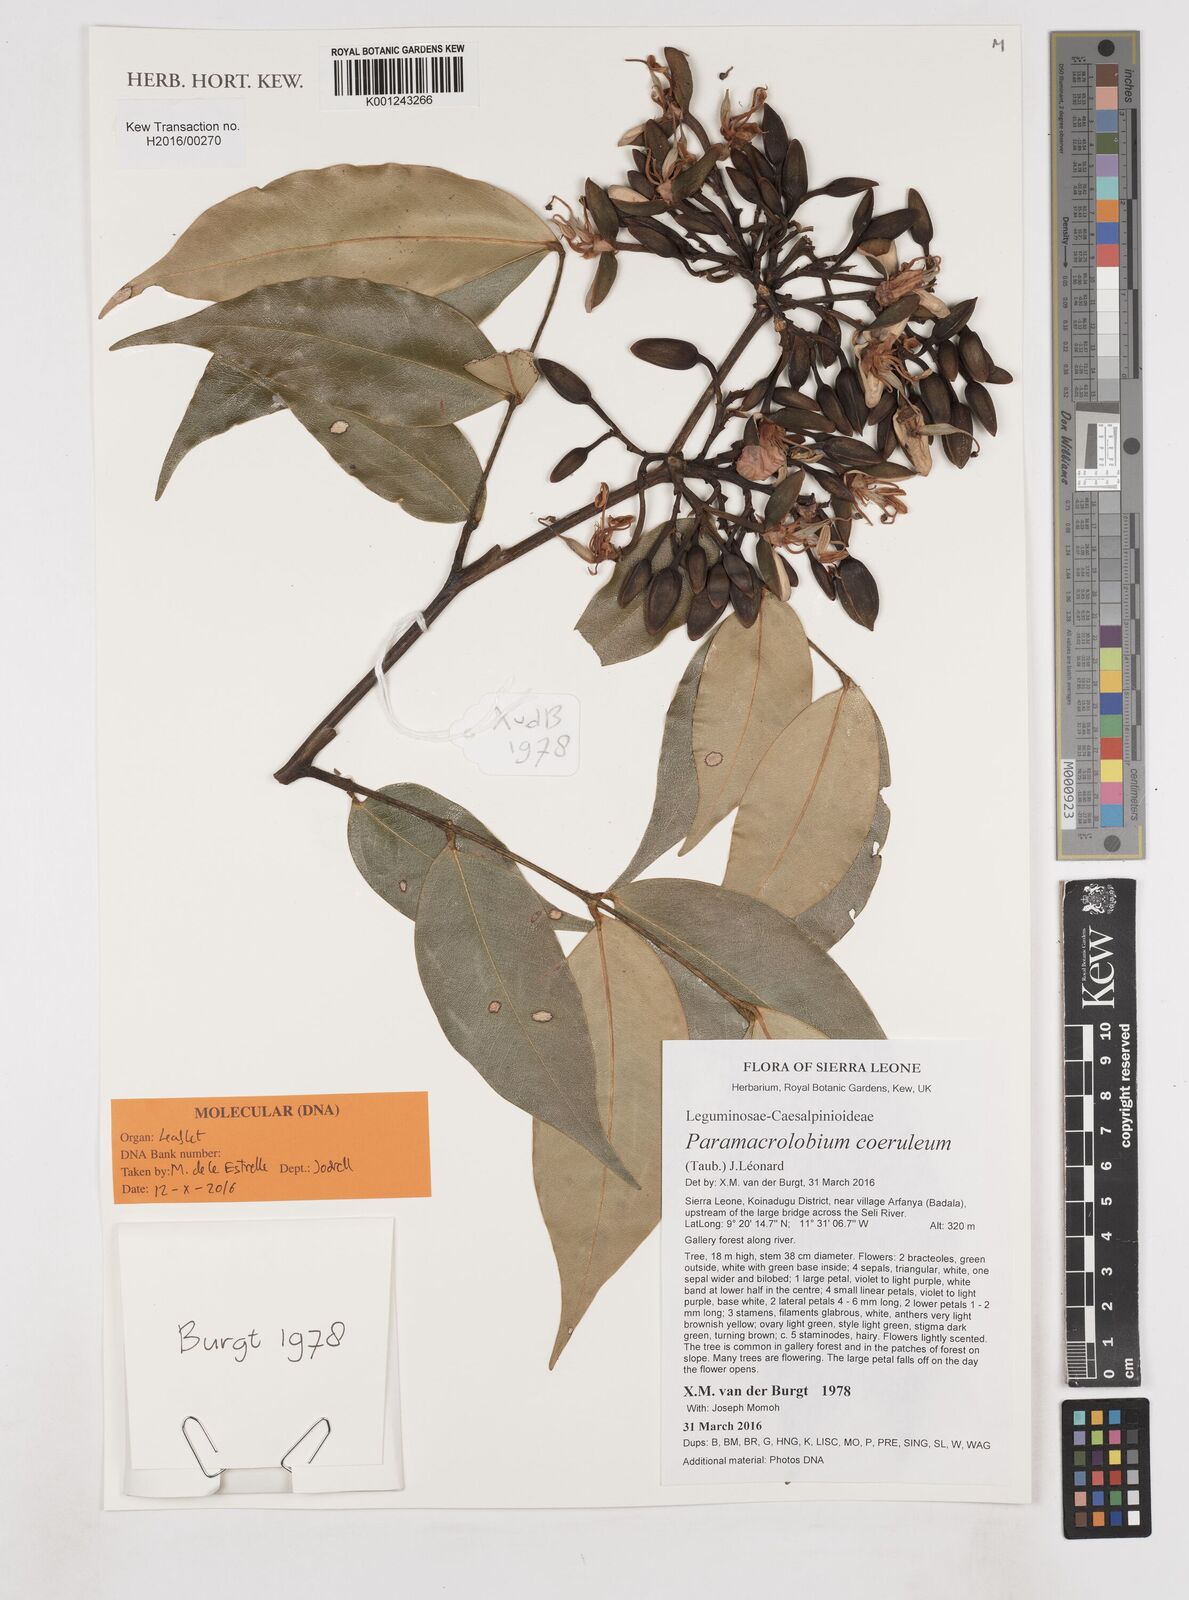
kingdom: Plantae
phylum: Tracheophyta
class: Magnoliopsida
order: Fabales
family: Fabaceae
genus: Paramacrolobium
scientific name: Paramacrolobium coeruleum
